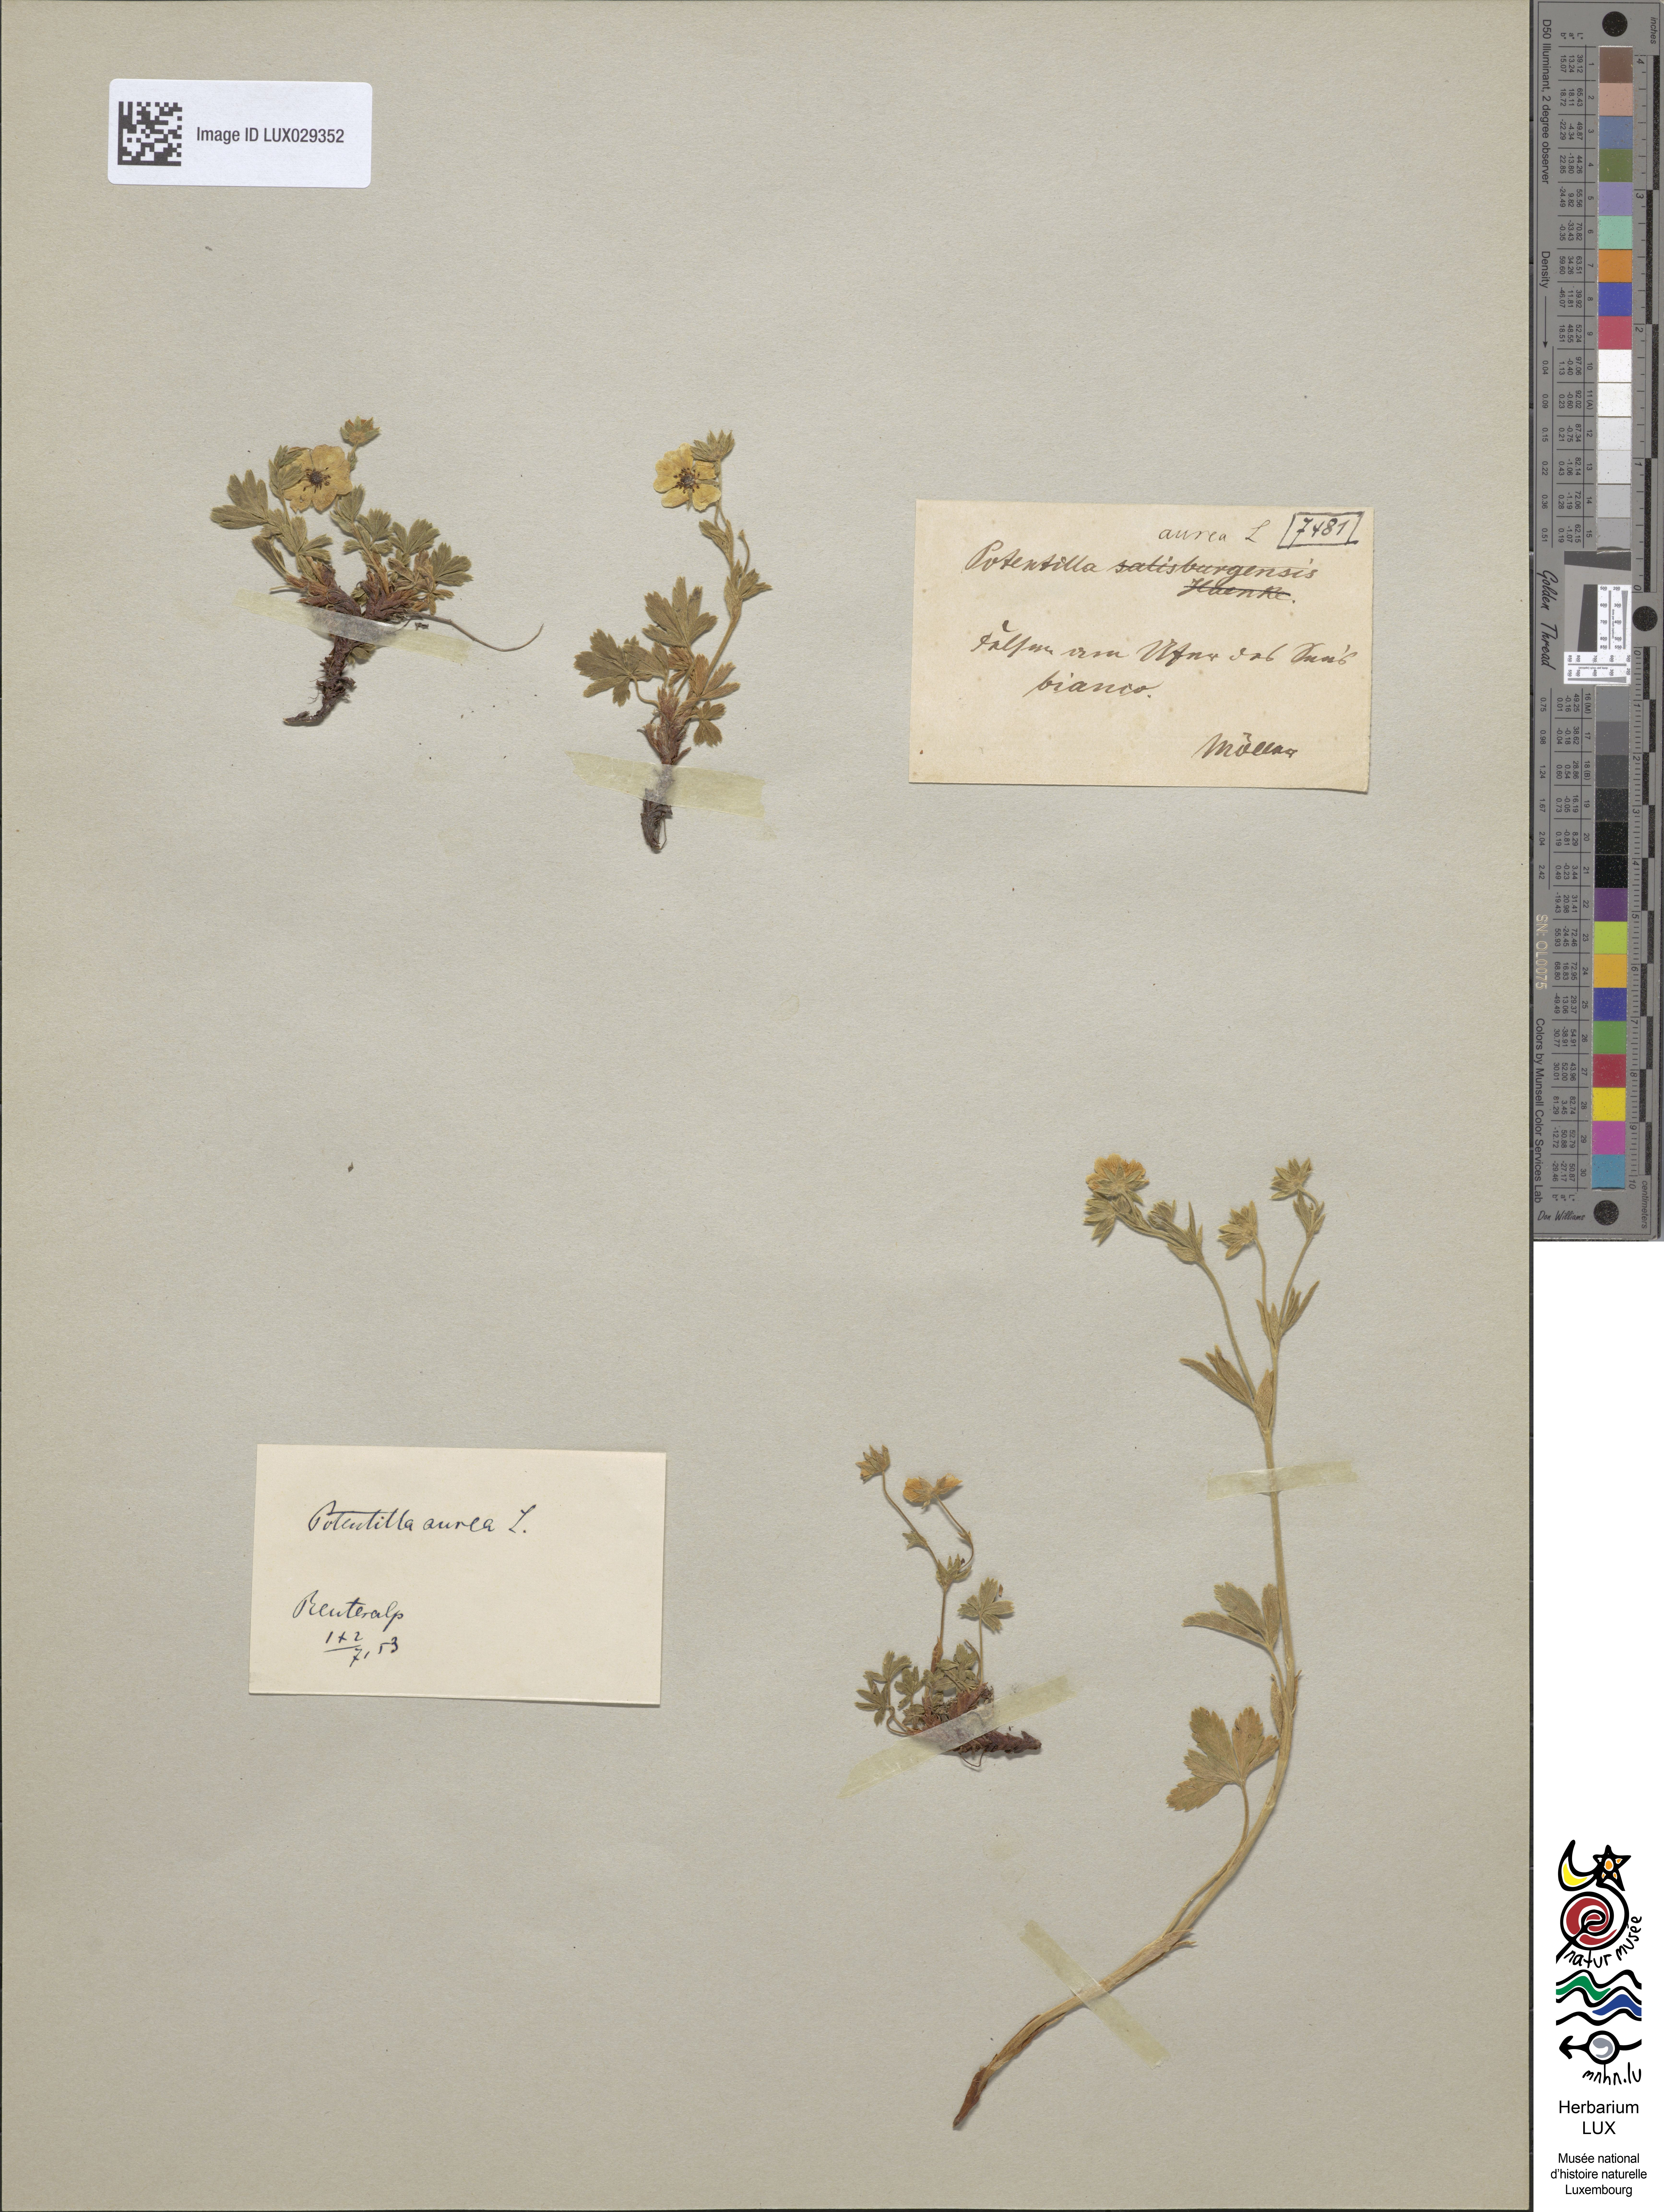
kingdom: Plantae
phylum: Tracheophyta
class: Magnoliopsida
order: Rosales
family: Rosaceae
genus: Potentilla
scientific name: Potentilla aurea
